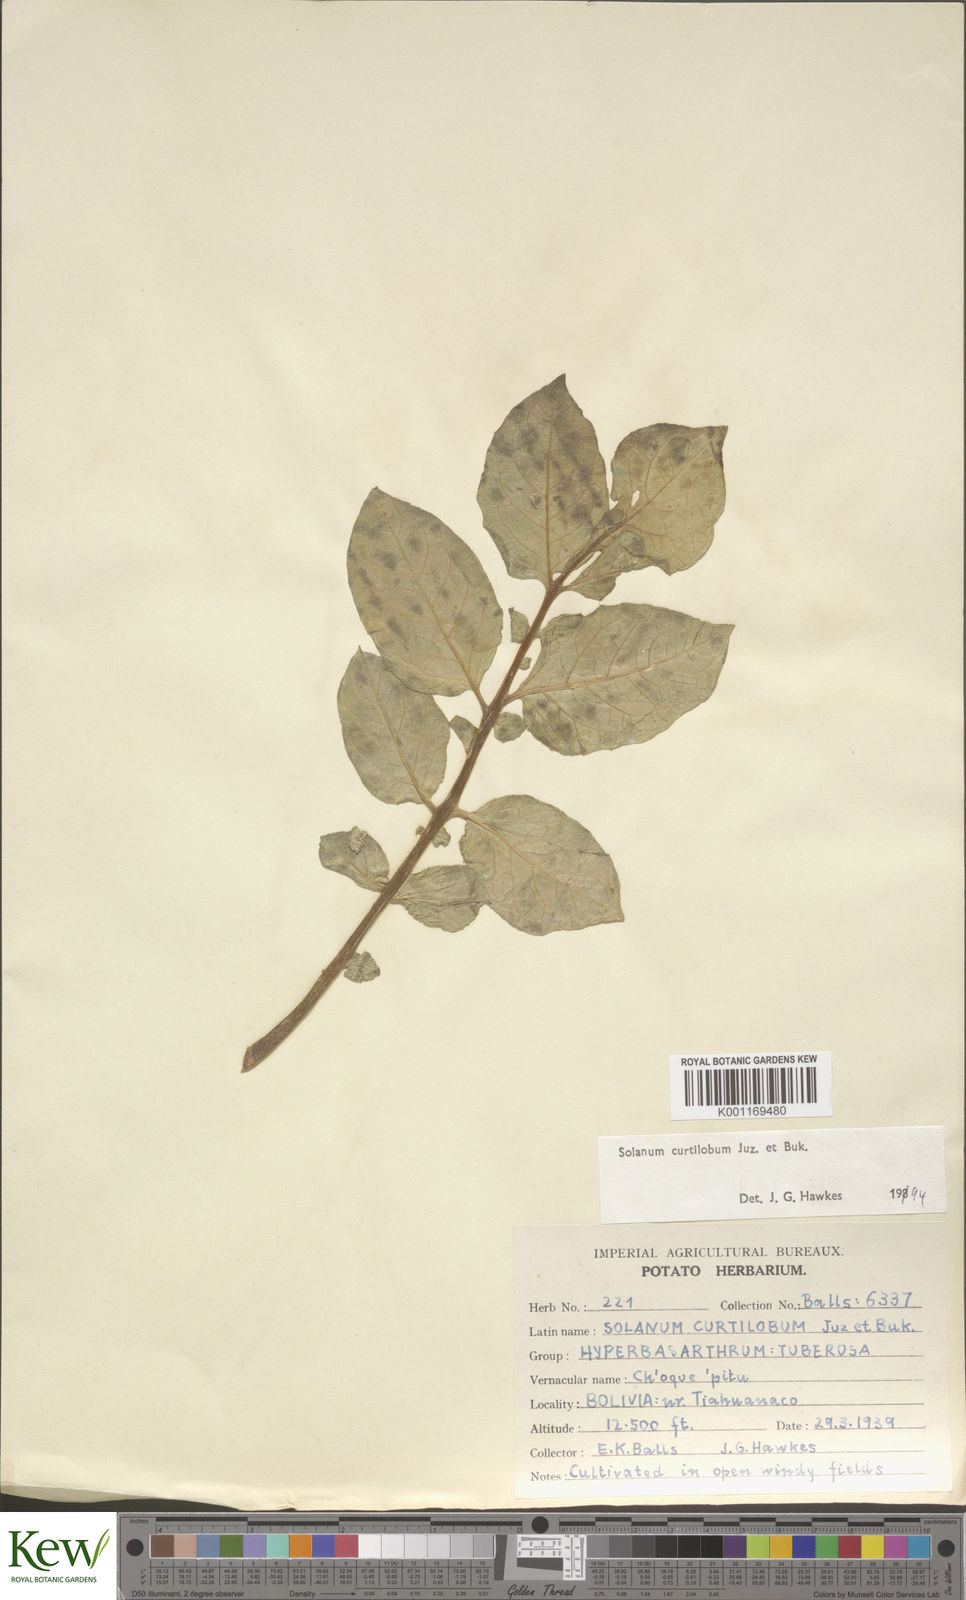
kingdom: Plantae
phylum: Tracheophyta
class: Magnoliopsida
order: Solanales
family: Solanaceae
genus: Solanum
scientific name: Solanum curtilobum
